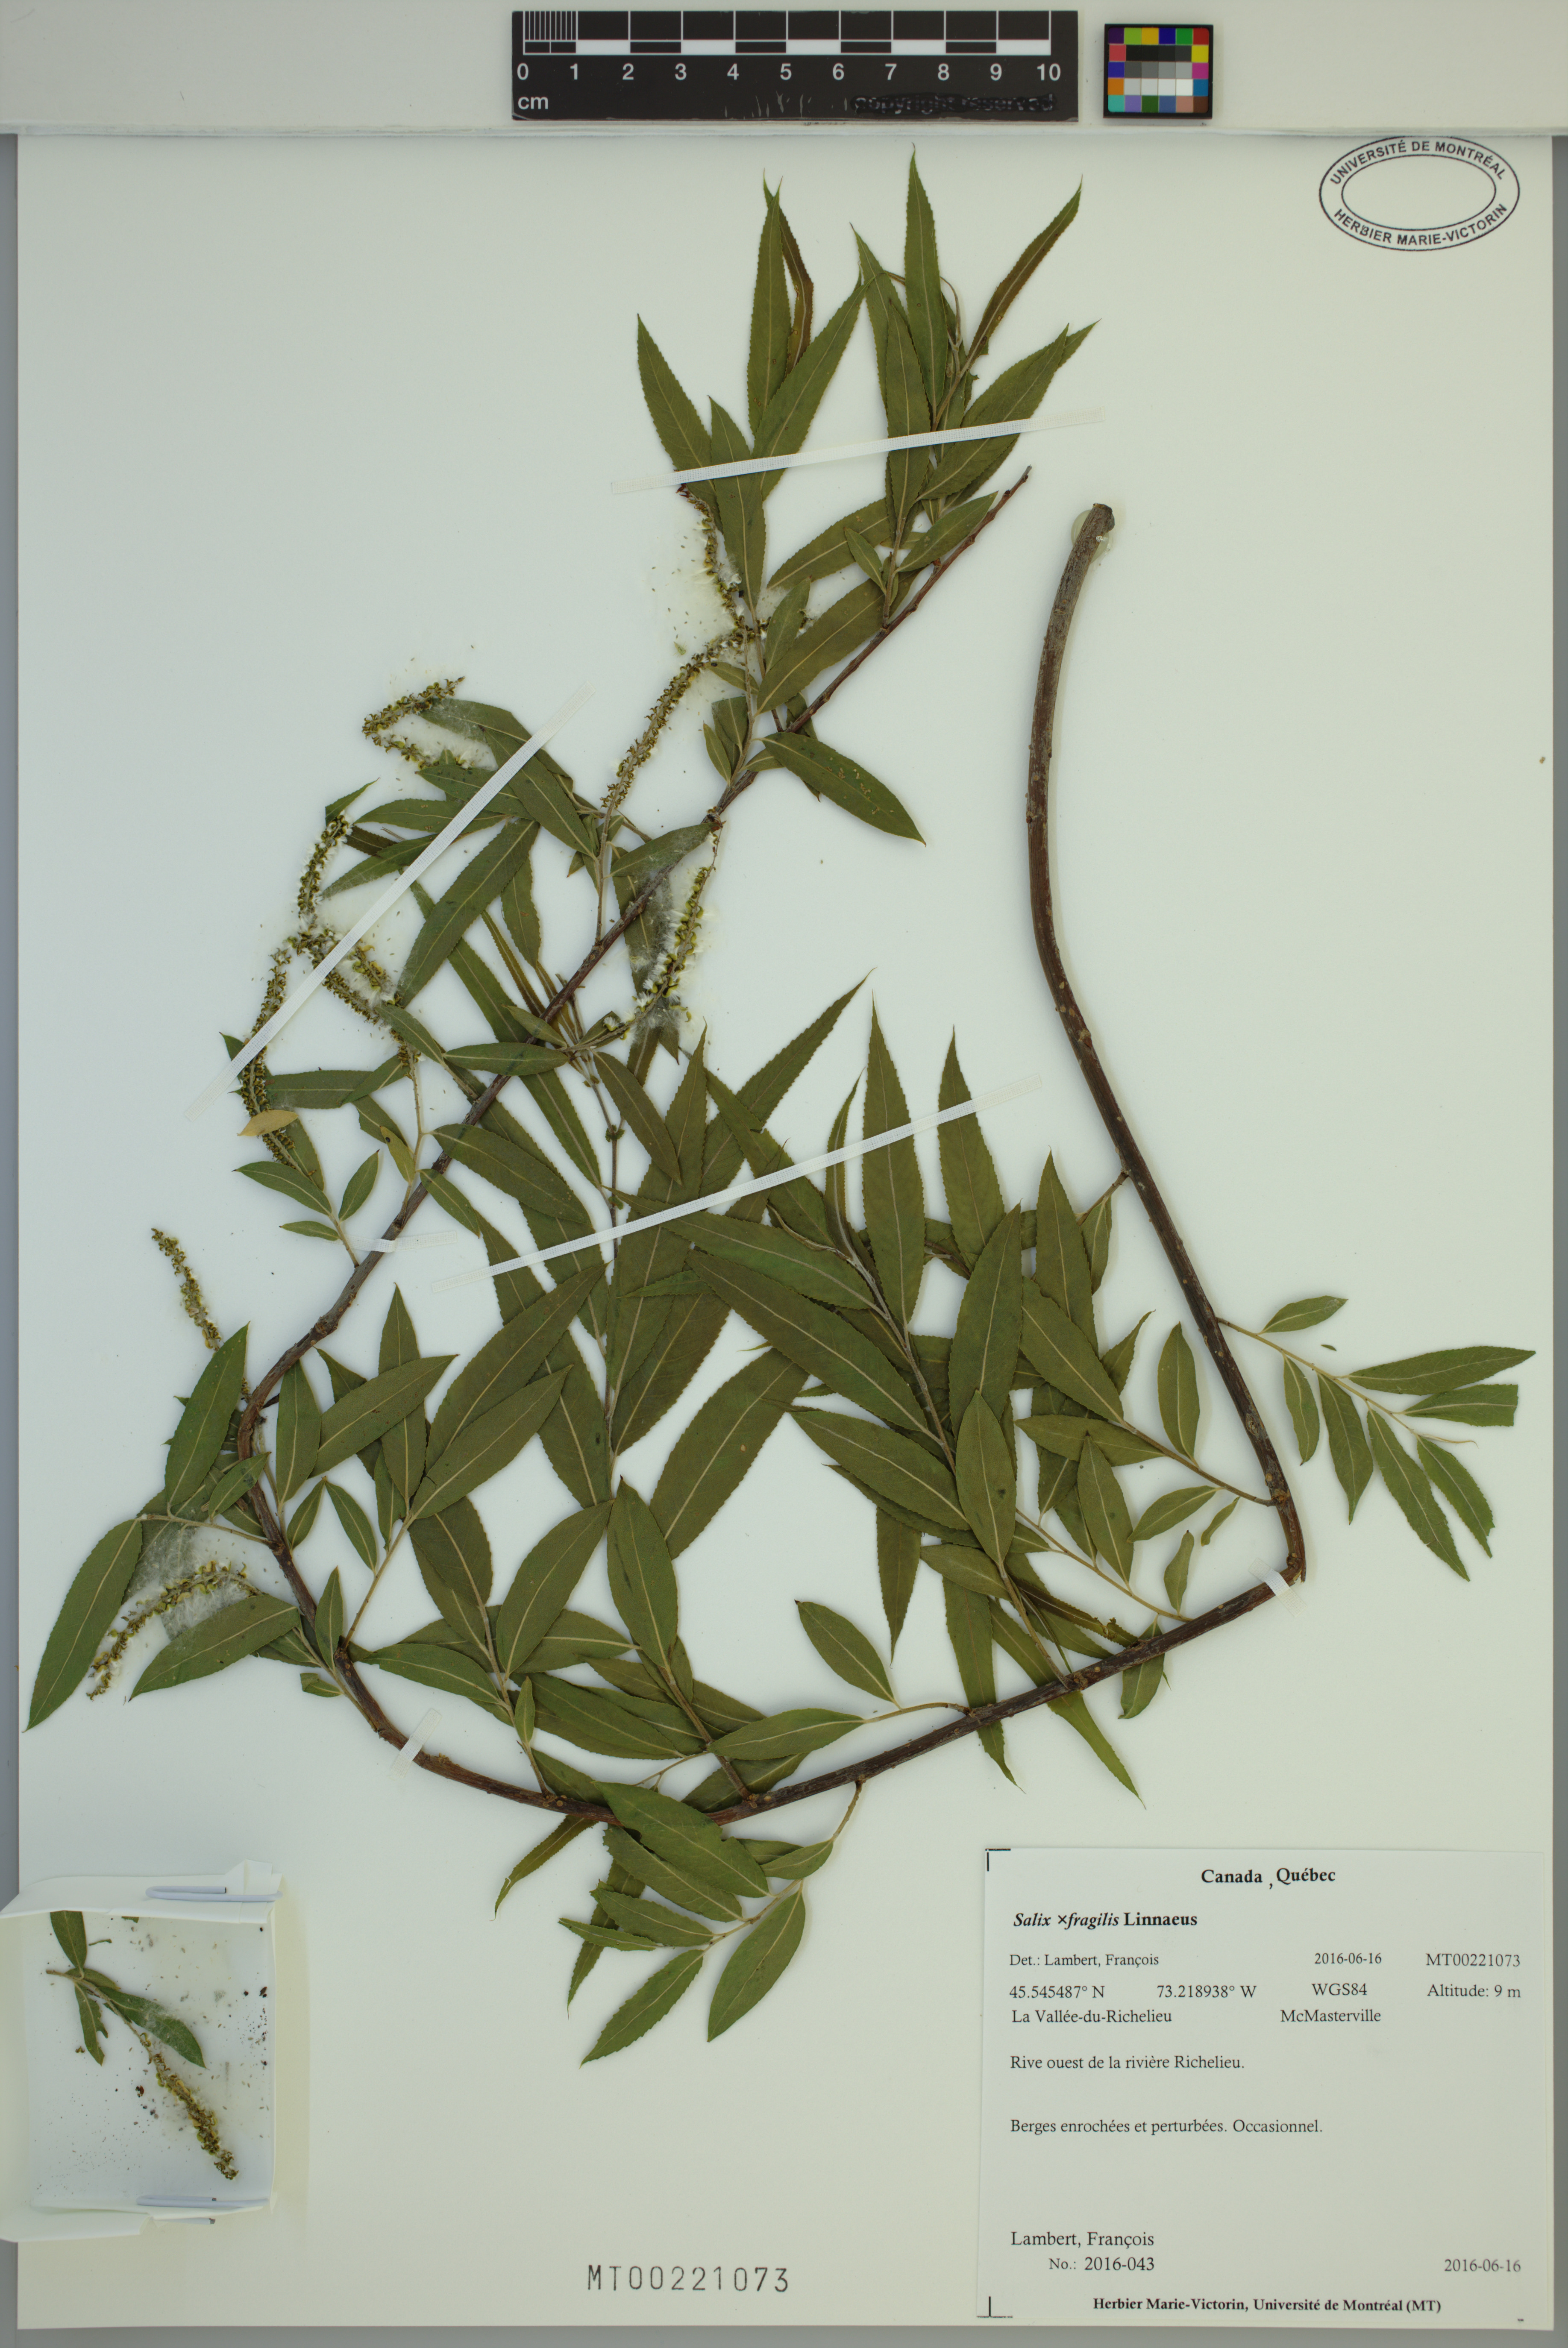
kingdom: Plantae
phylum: Tracheophyta
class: Magnoliopsida
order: Malpighiales
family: Salicaceae
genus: Salix
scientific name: Salix fragilis
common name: Crack willow
